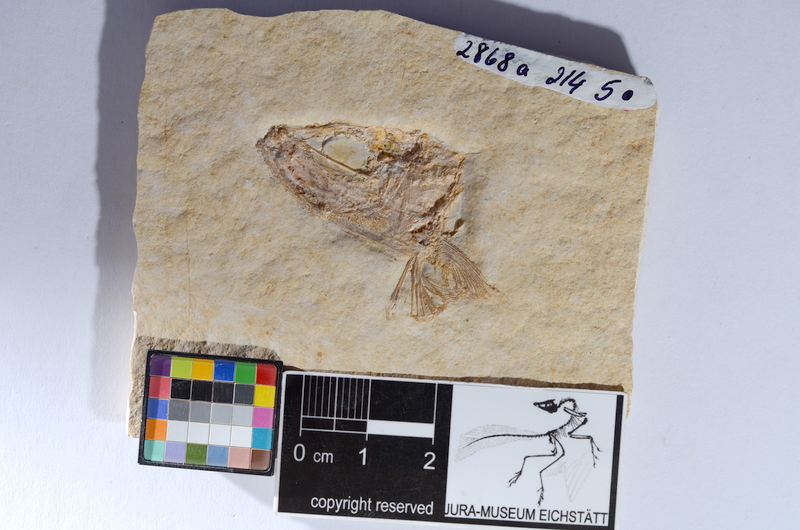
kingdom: Animalia
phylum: Chordata
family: Ascalaboidae
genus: Tharsis
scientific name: Tharsis dubius
